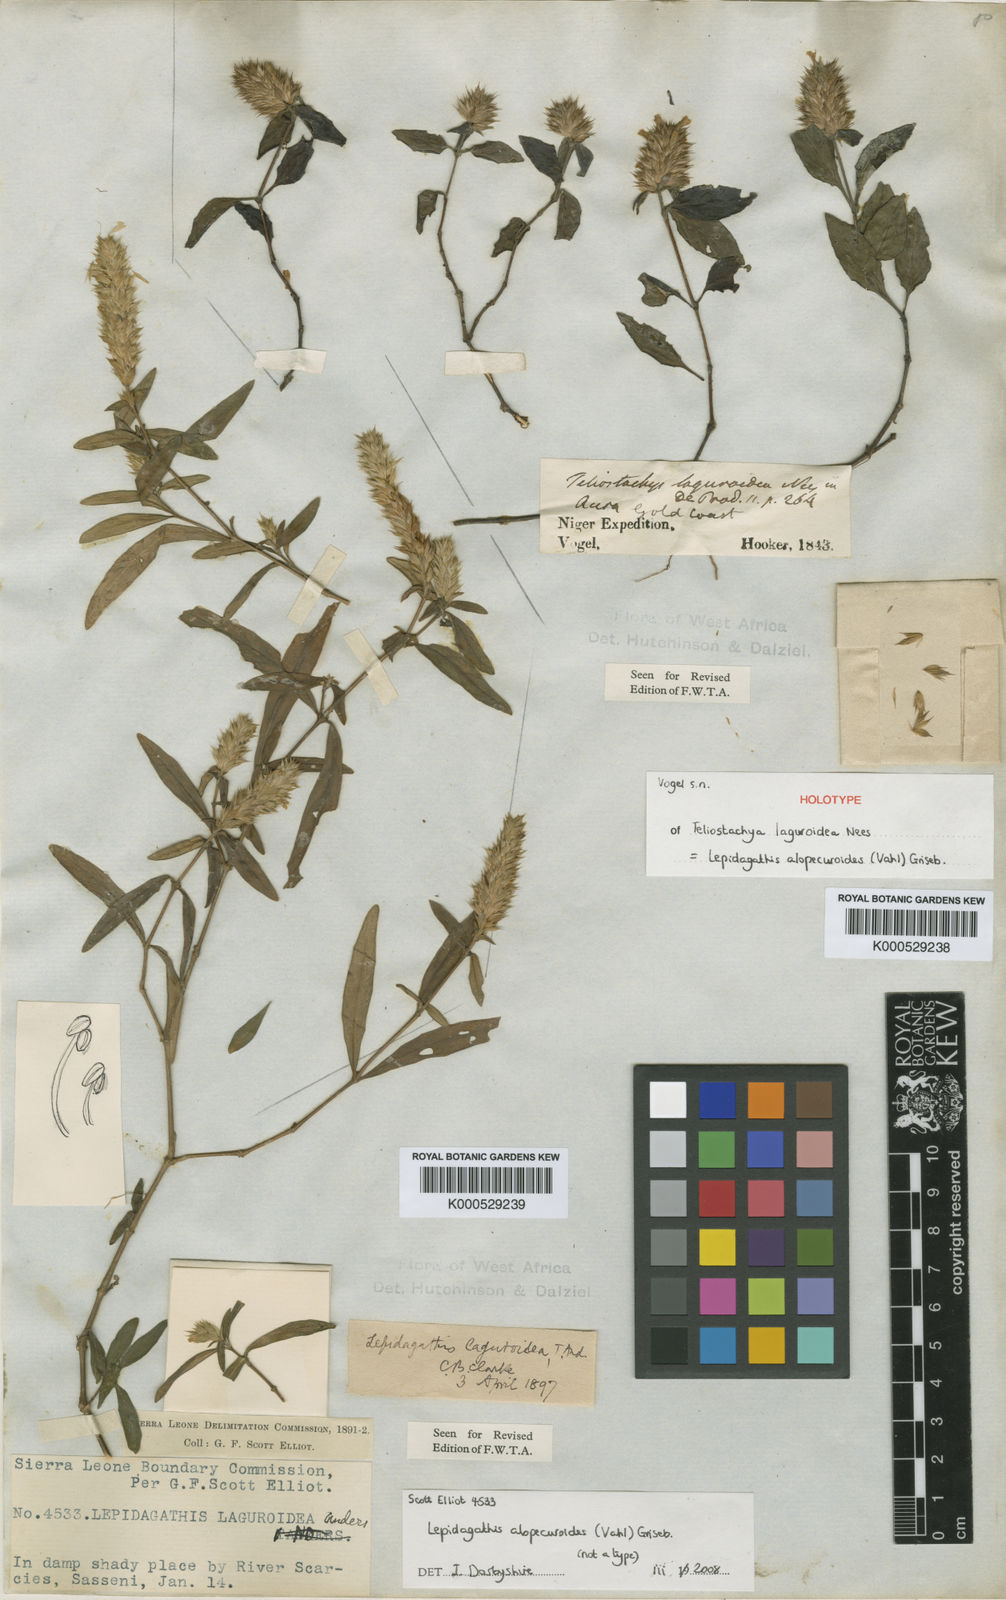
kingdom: Plantae
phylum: Tracheophyta
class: Magnoliopsida
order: Lamiales
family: Acanthaceae
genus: Lepidagathis
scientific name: Lepidagathis alopecuroidea
